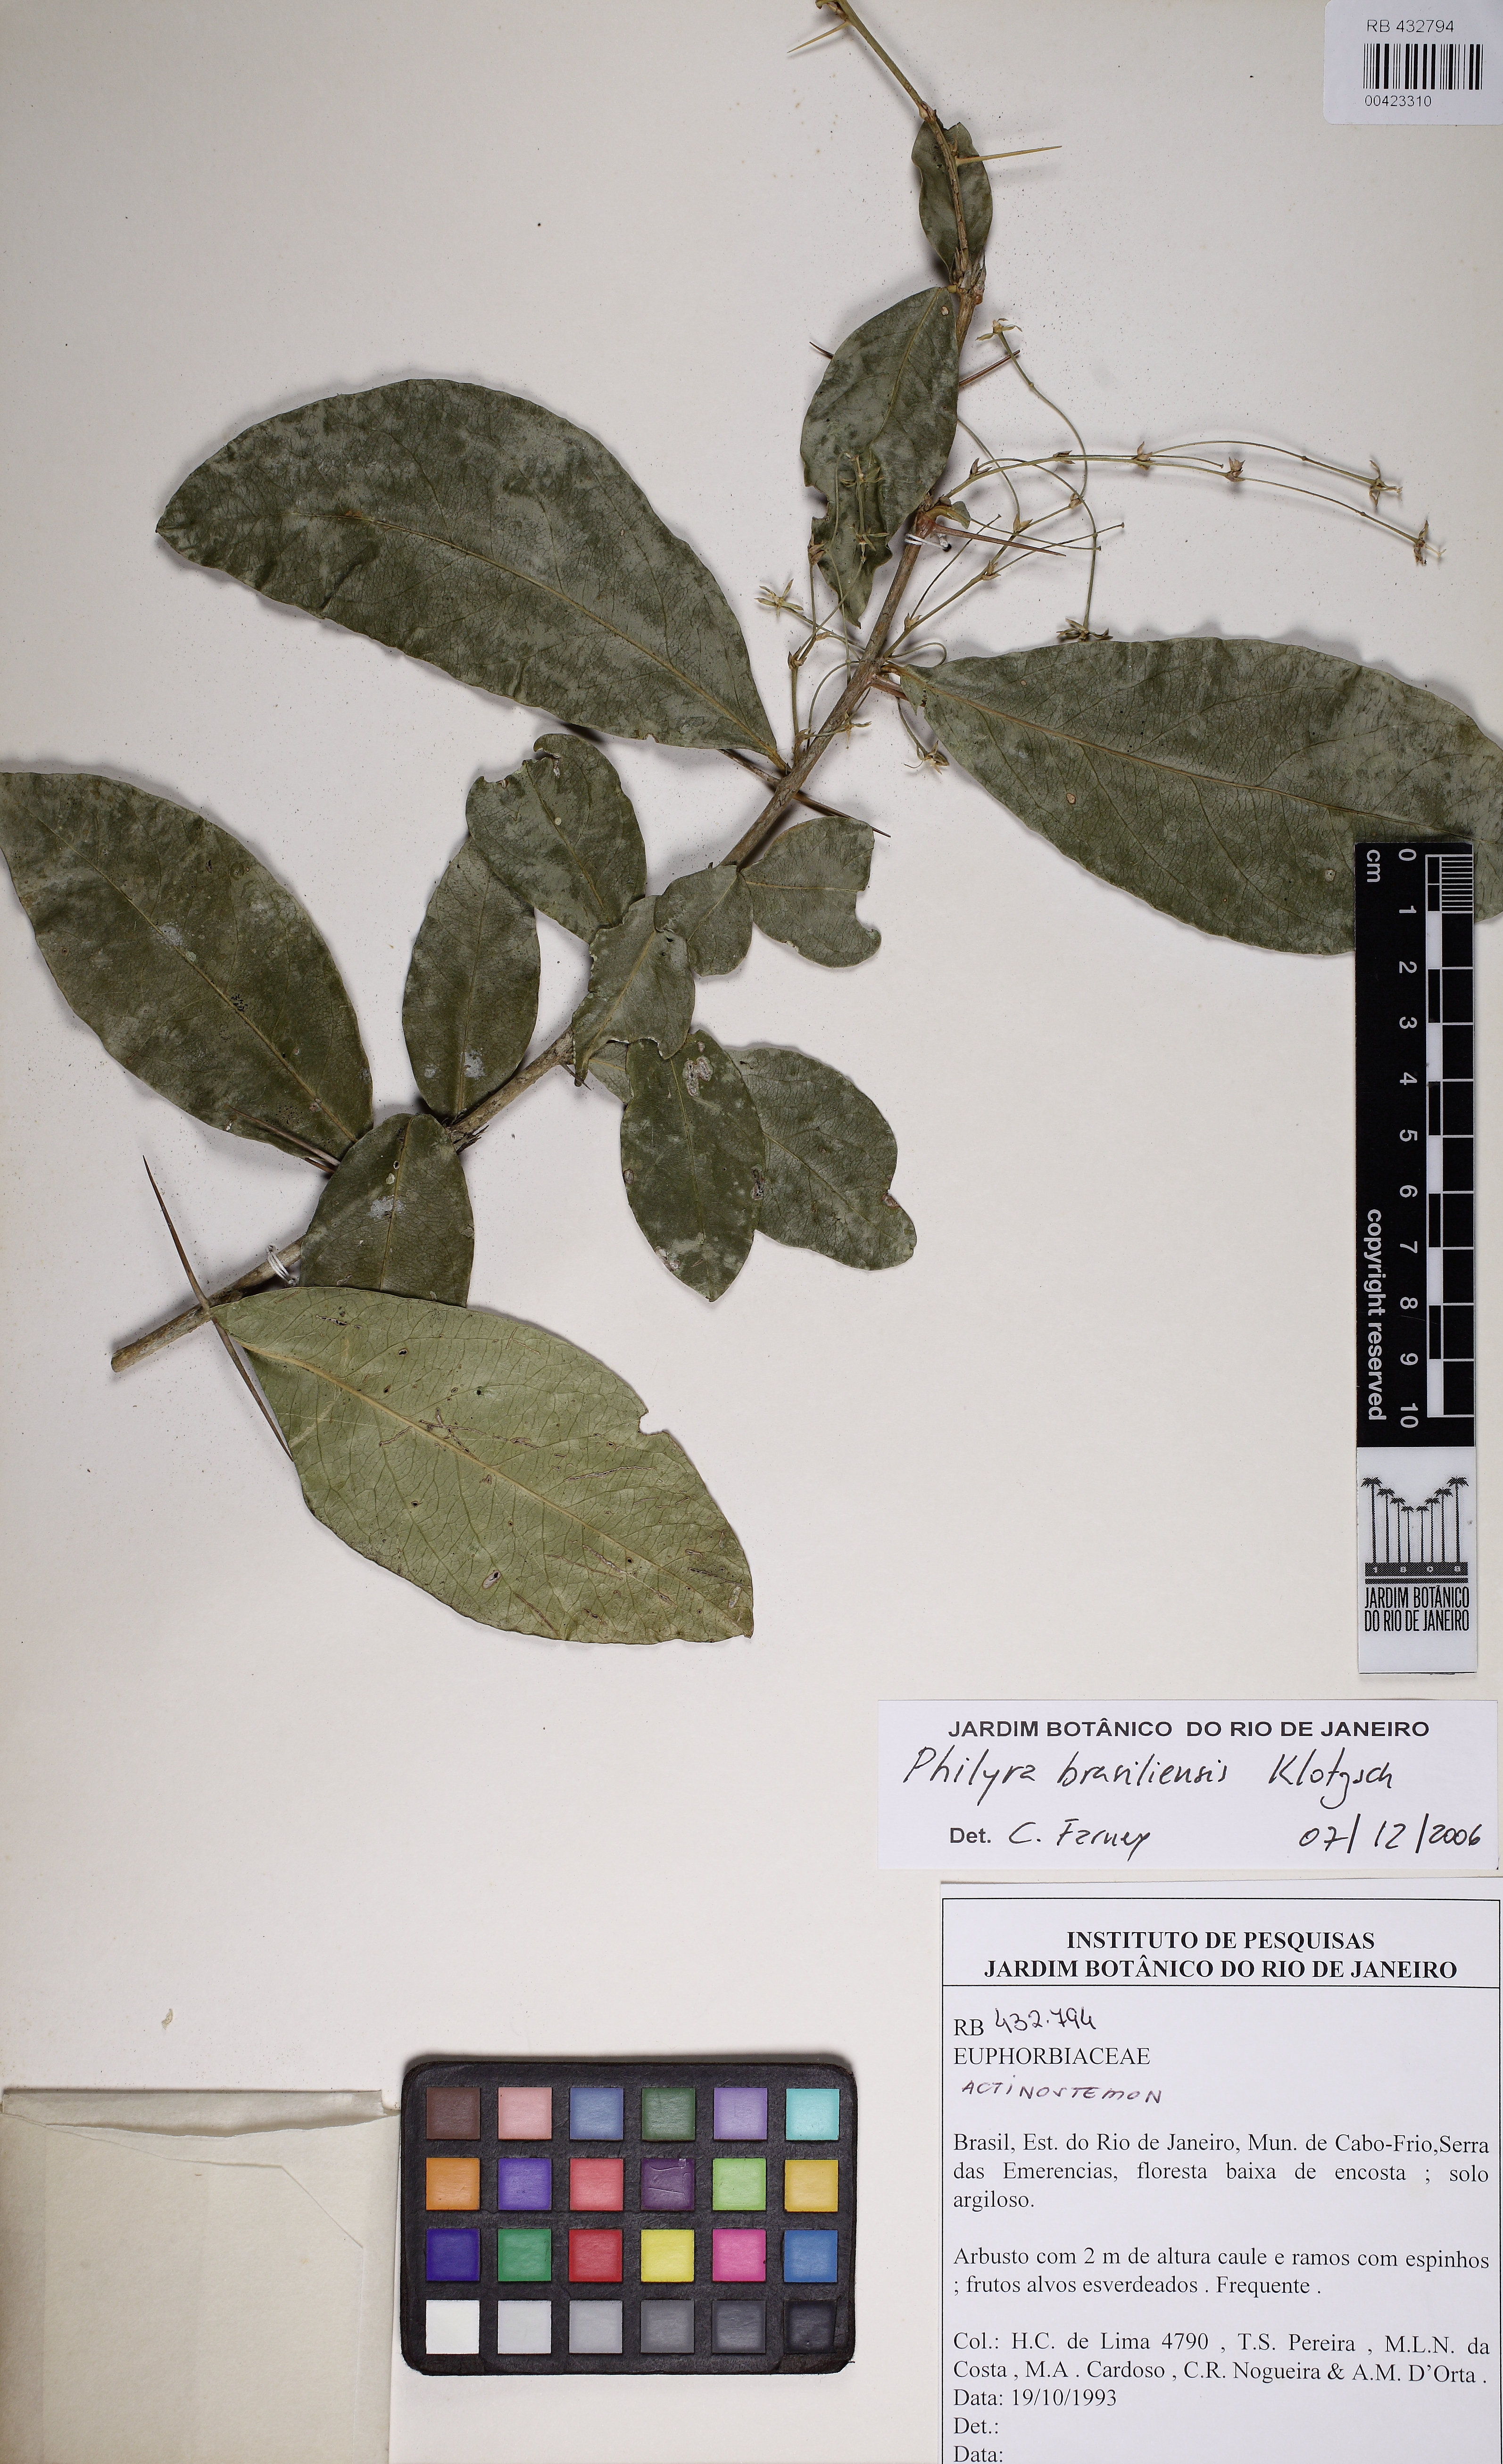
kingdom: Plantae
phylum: Tracheophyta
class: Magnoliopsida
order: Malpighiales
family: Euphorbiaceae
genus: Actinostemon
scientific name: Actinostemon
